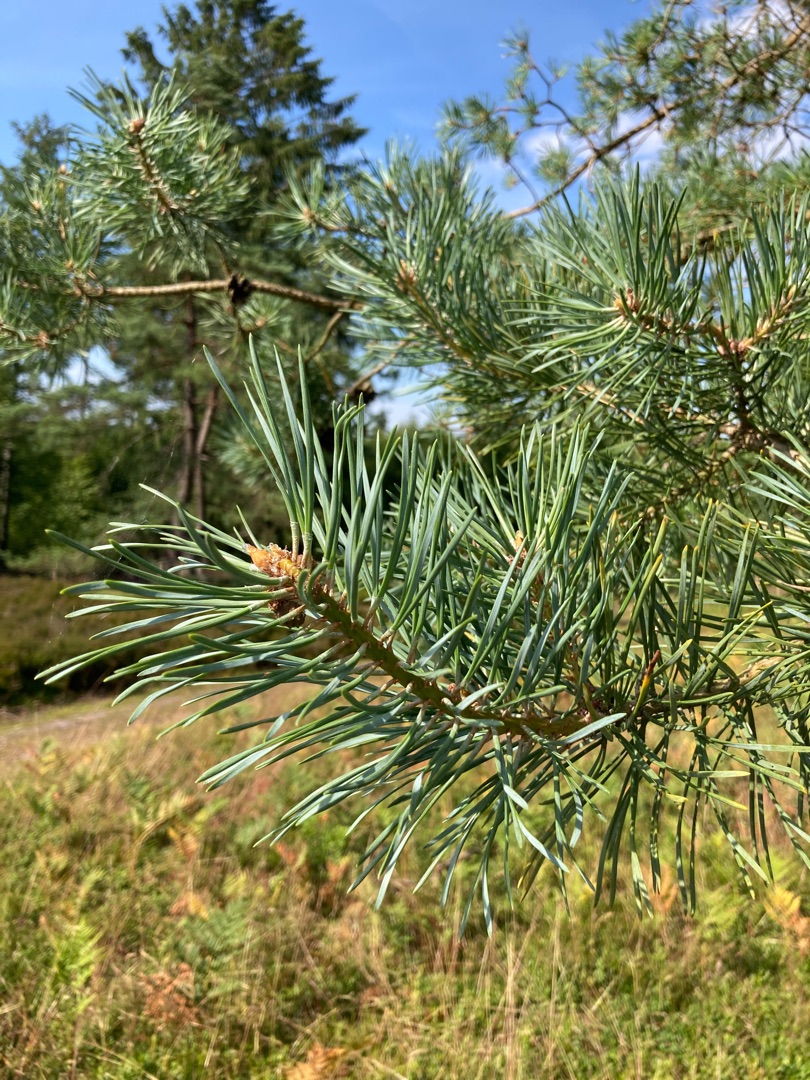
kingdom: Plantae
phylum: Tracheophyta
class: Pinopsida
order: Pinales
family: Pinaceae
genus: Pinus
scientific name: Pinus sylvestris
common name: Skov-fyr
